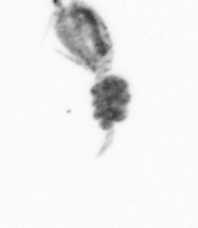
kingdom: Animalia
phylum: Arthropoda
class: Copepoda
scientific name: Copepoda
